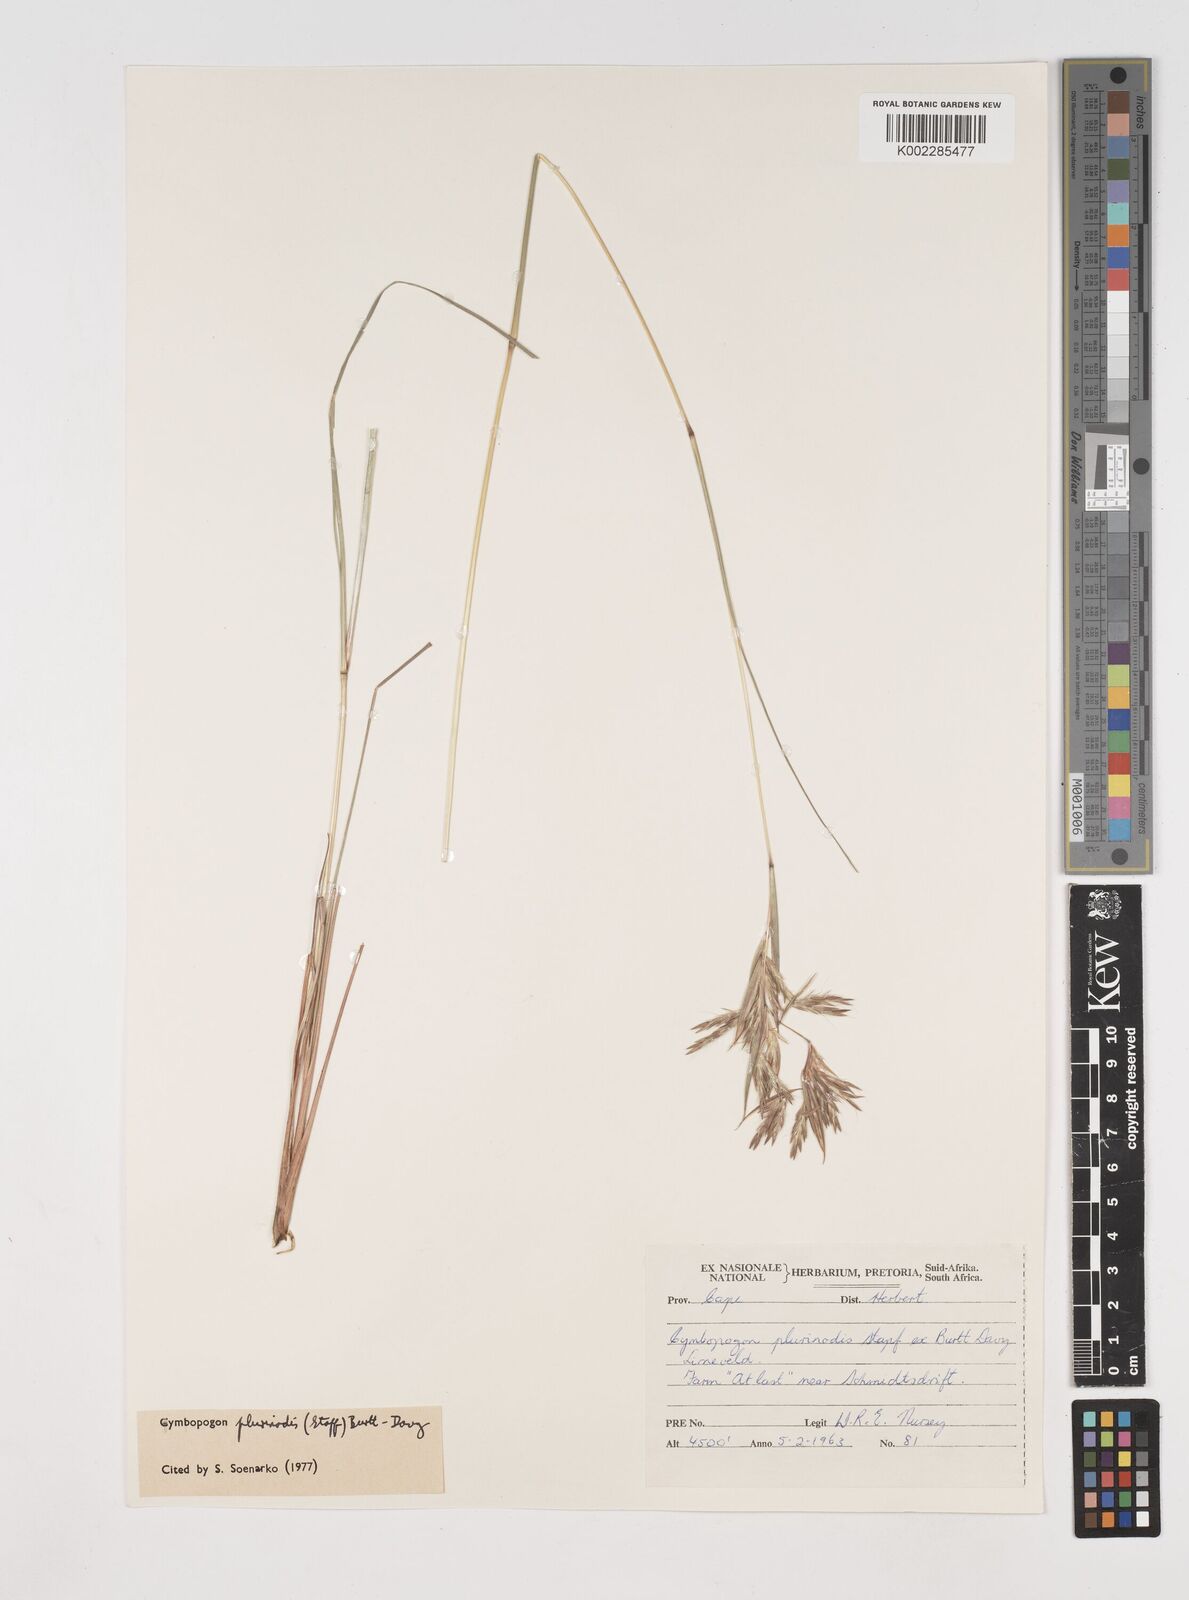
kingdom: Plantae
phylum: Tracheophyta
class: Liliopsida
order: Poales
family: Poaceae
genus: Cymbopogon
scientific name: Cymbopogon pospischilii
